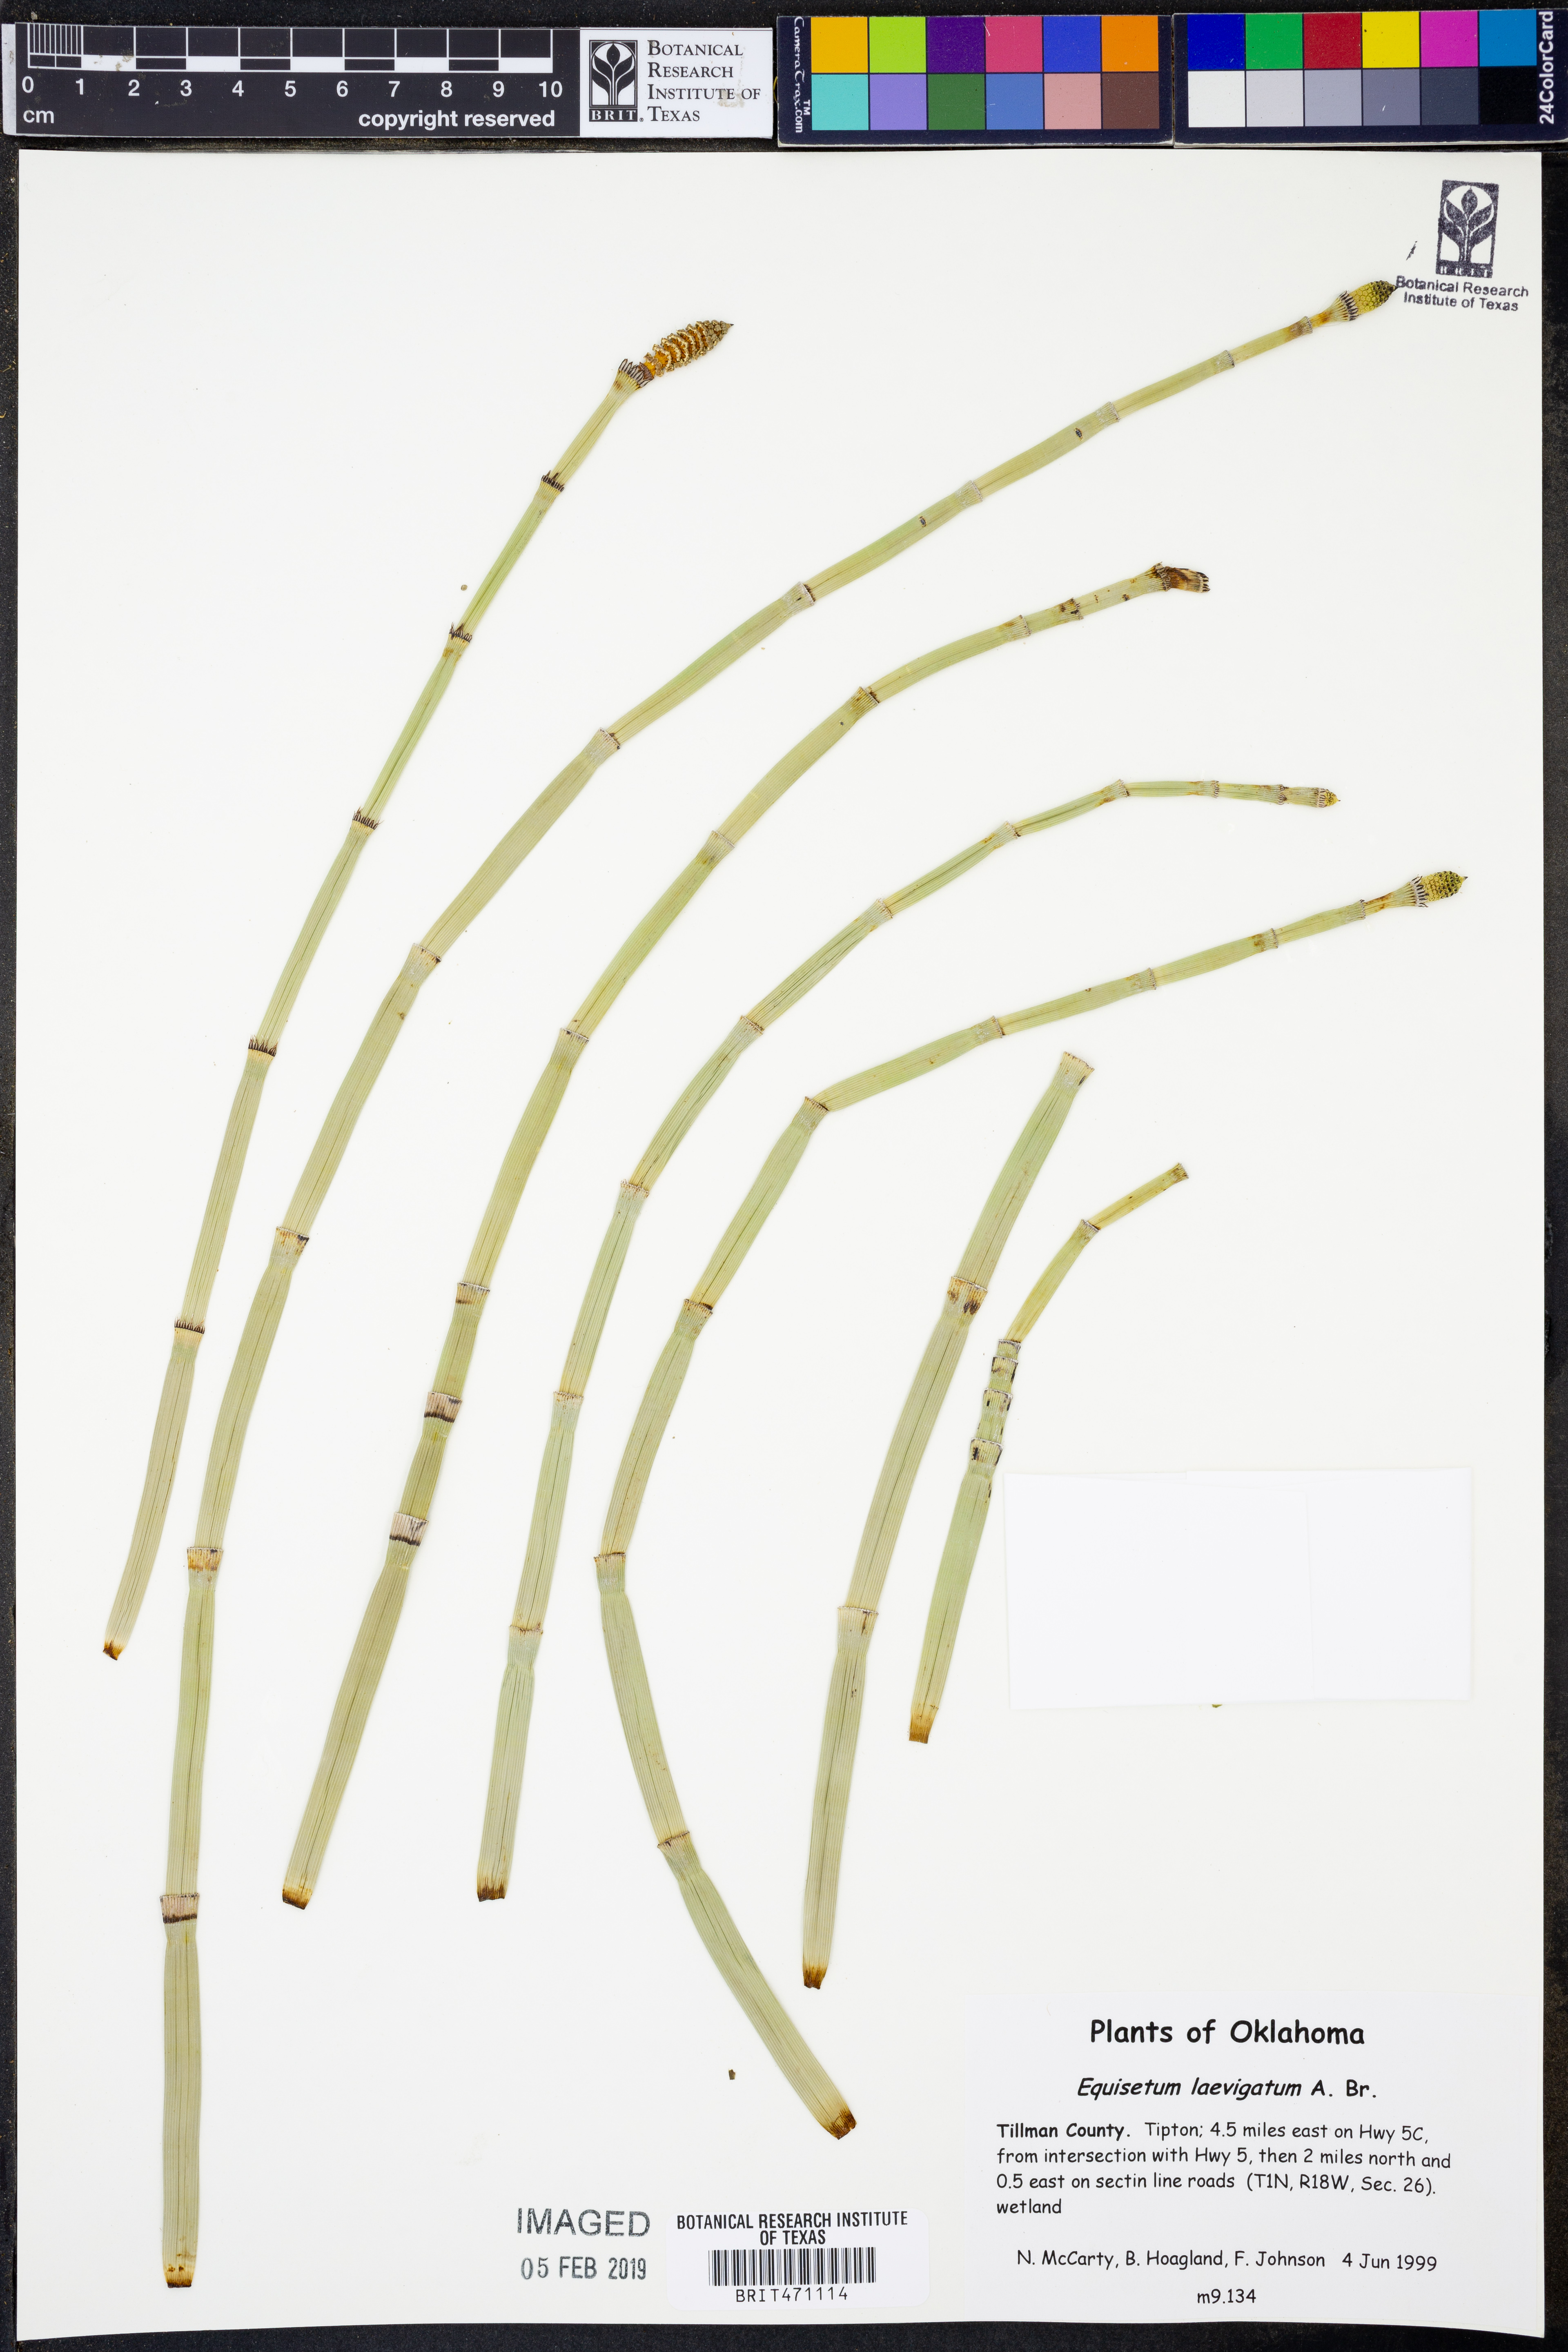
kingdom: Plantae
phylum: Tracheophyta
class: Polypodiopsida
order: Equisetales
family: Equisetaceae
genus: Equisetum
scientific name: Equisetum laevigatum
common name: Smooth scouring-rush
